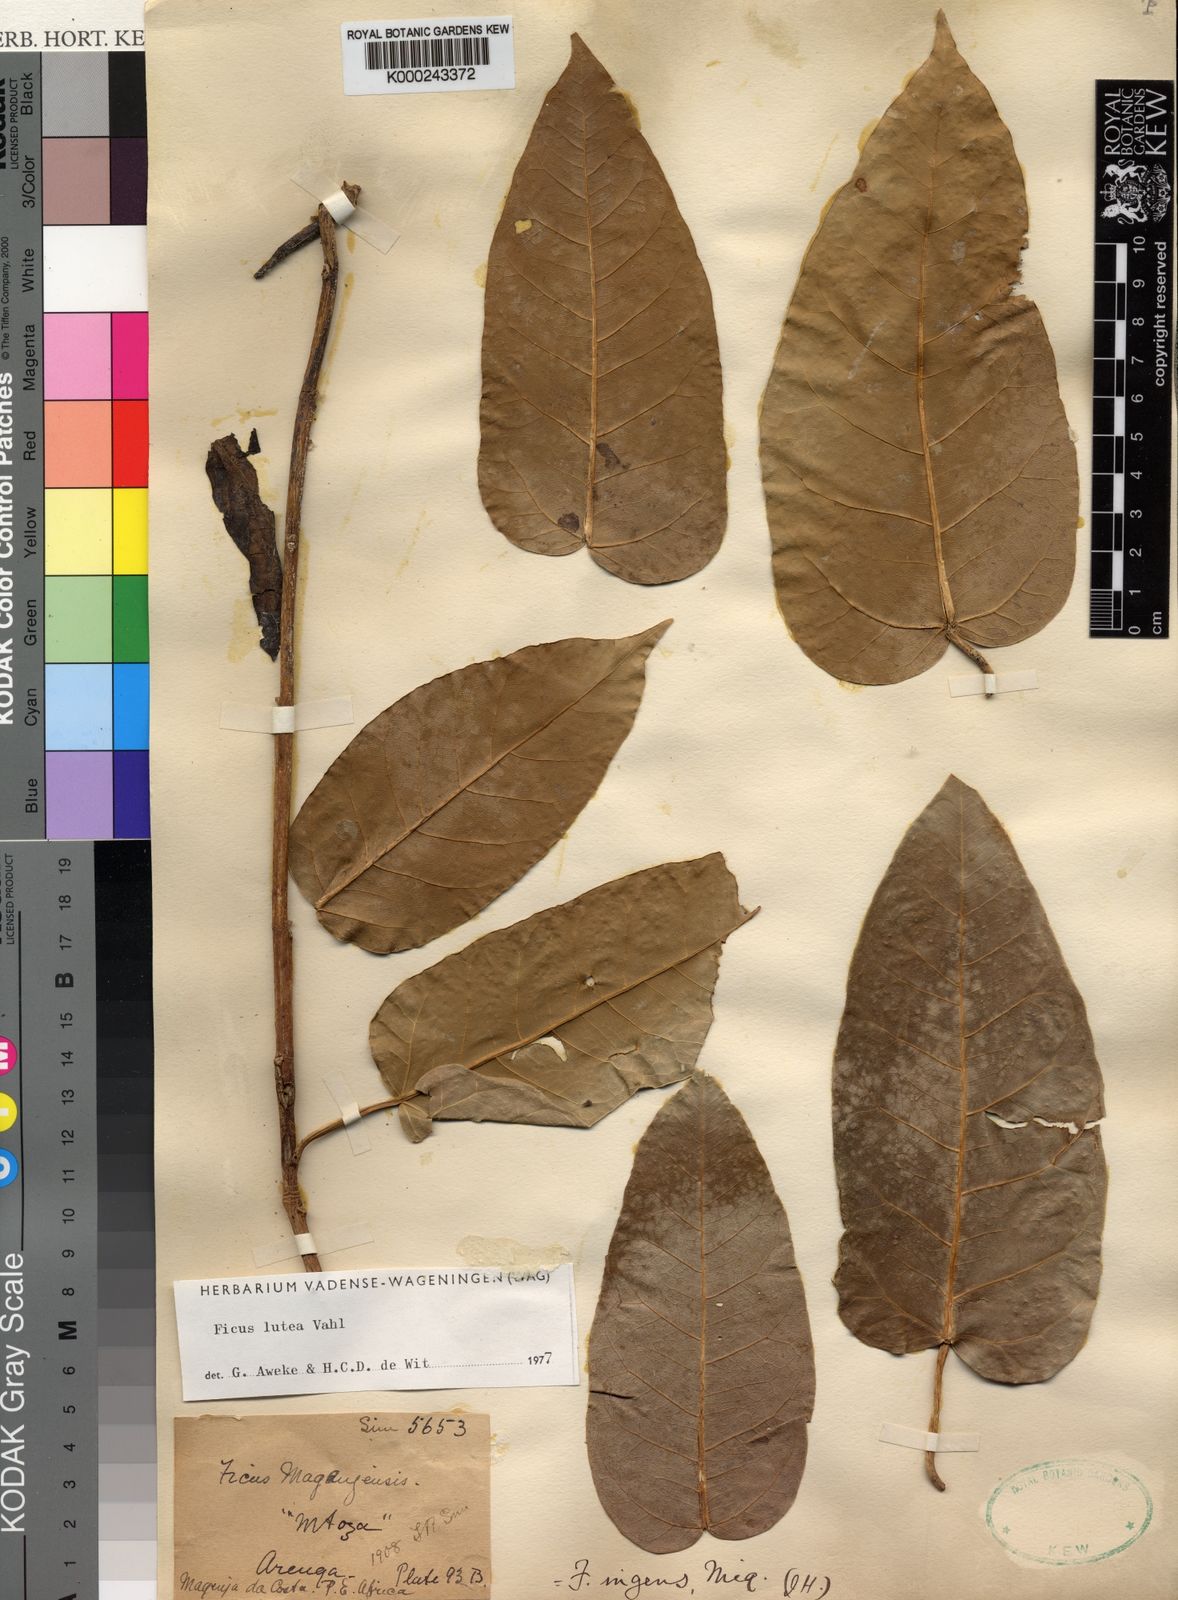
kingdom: Plantae
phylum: Tracheophyta
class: Magnoliopsida
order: Rosales
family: Moraceae
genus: Ficus
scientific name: Ficus ingens
